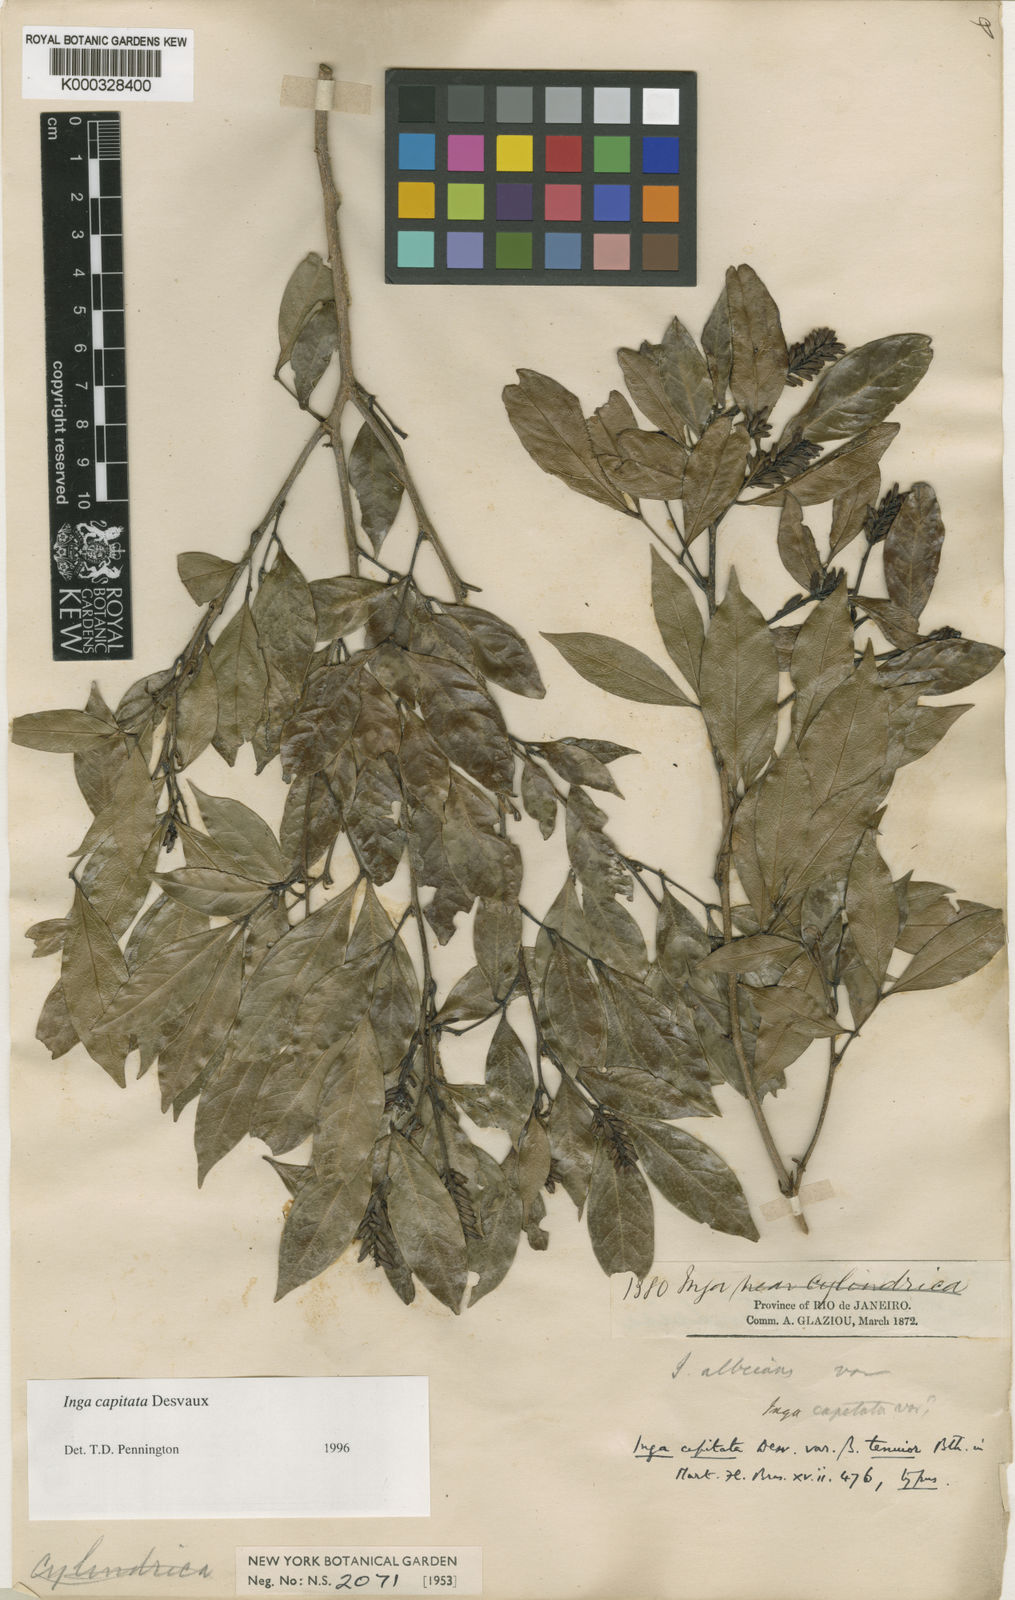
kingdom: Plantae
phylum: Tracheophyta
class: Magnoliopsida
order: Fabales
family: Fabaceae
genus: Inga
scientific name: Inga capitata
